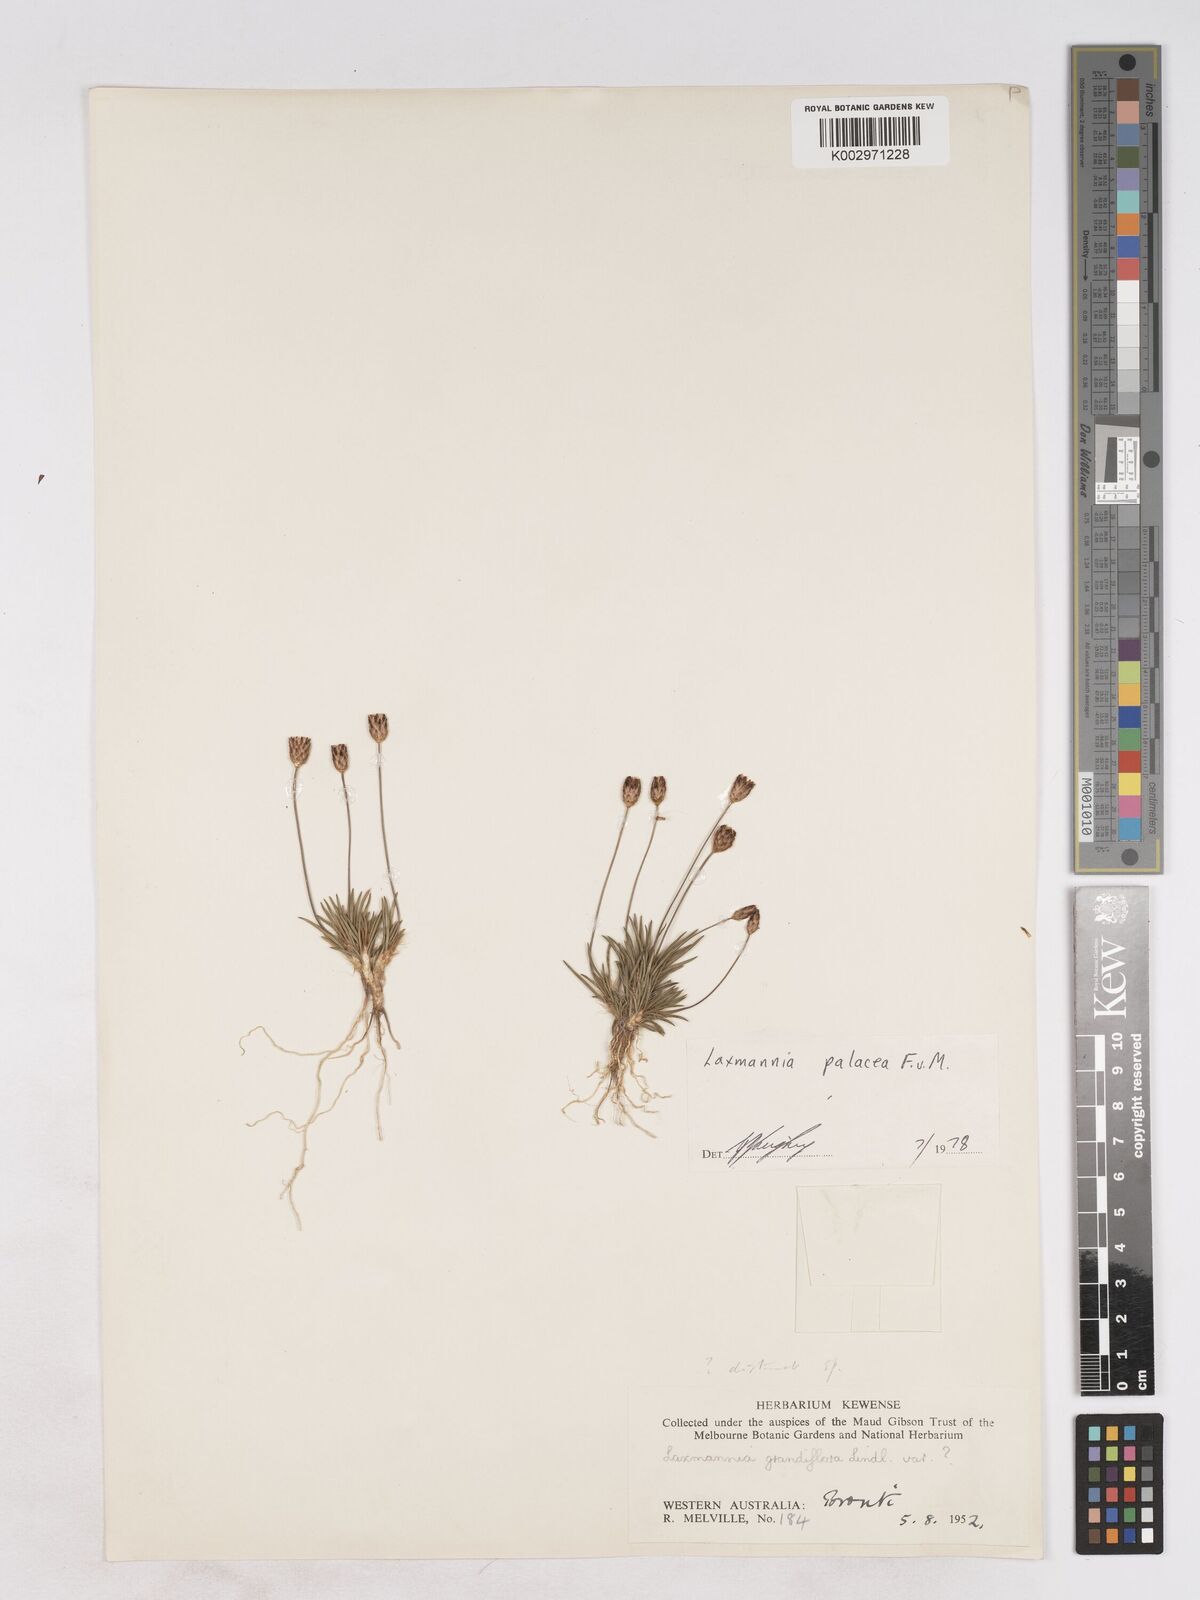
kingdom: Plantae
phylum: Tracheophyta
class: Liliopsida
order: Asparagales
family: Asparagaceae
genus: Laxmannia
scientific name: Laxmannia paleacea
